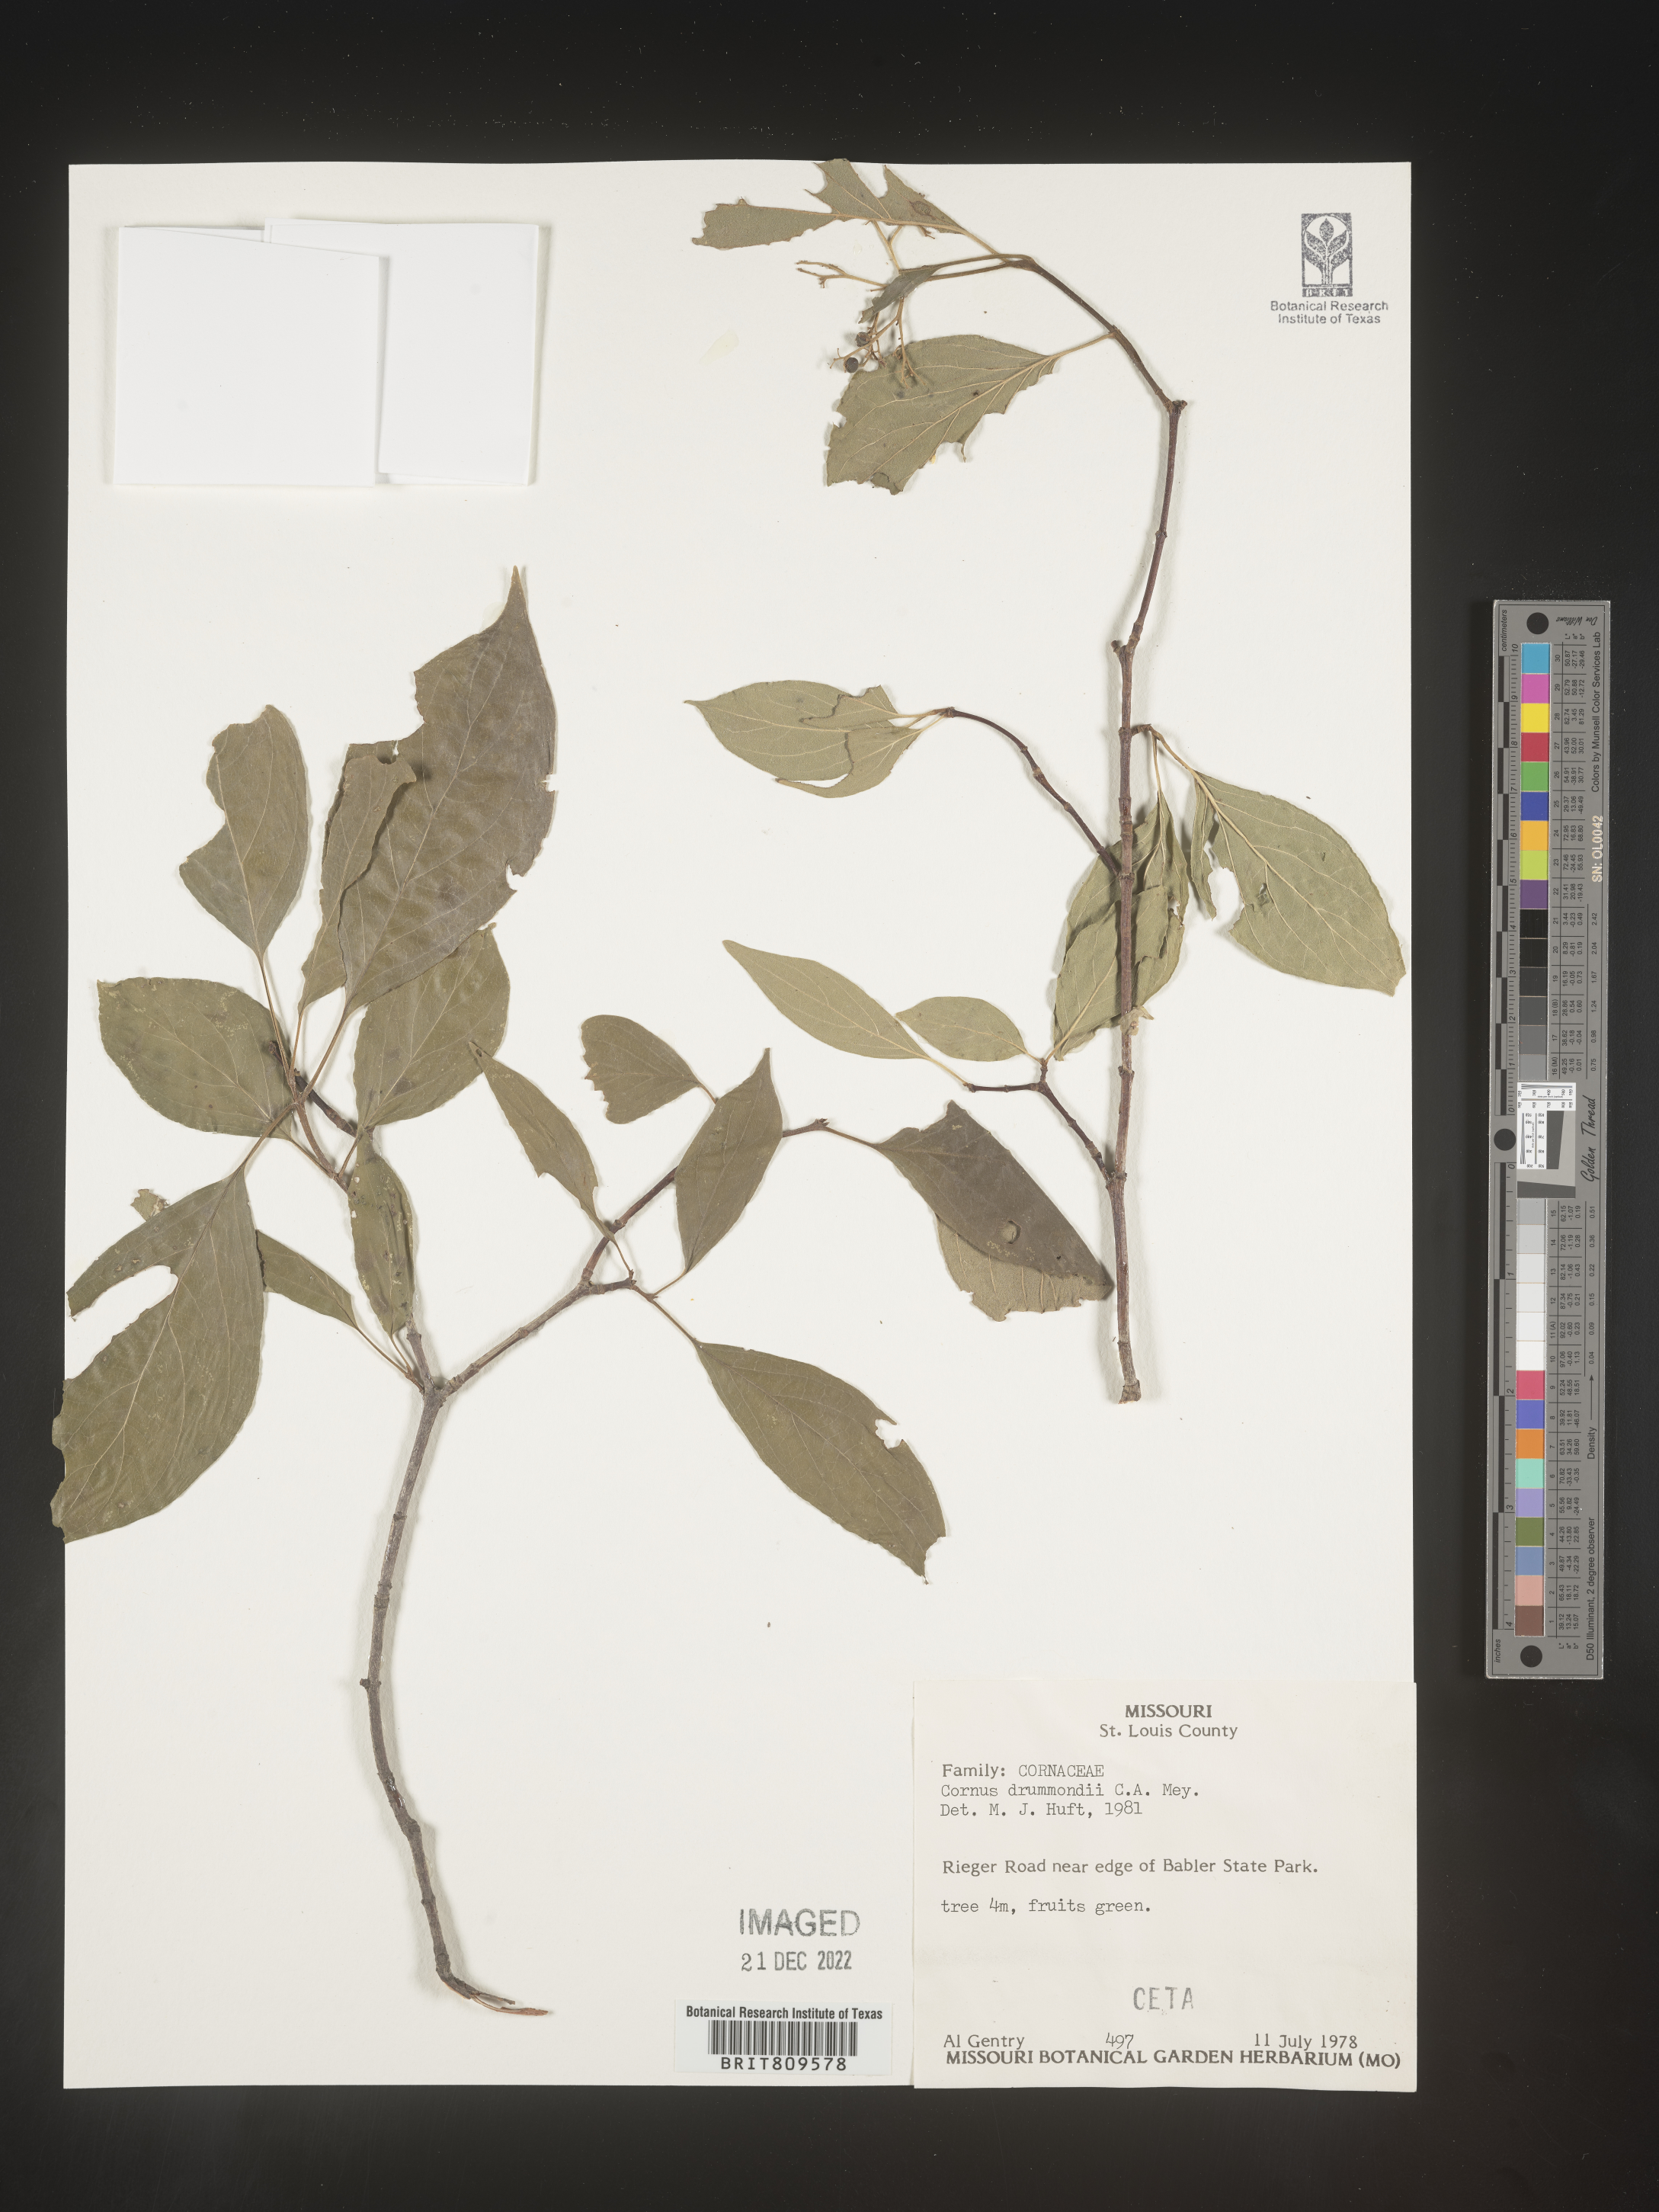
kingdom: Plantae
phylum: Tracheophyta
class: Magnoliopsida
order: Cornales
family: Cornaceae
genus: Cornus
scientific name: Cornus drummondii
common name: Rough-leaf dogwood
